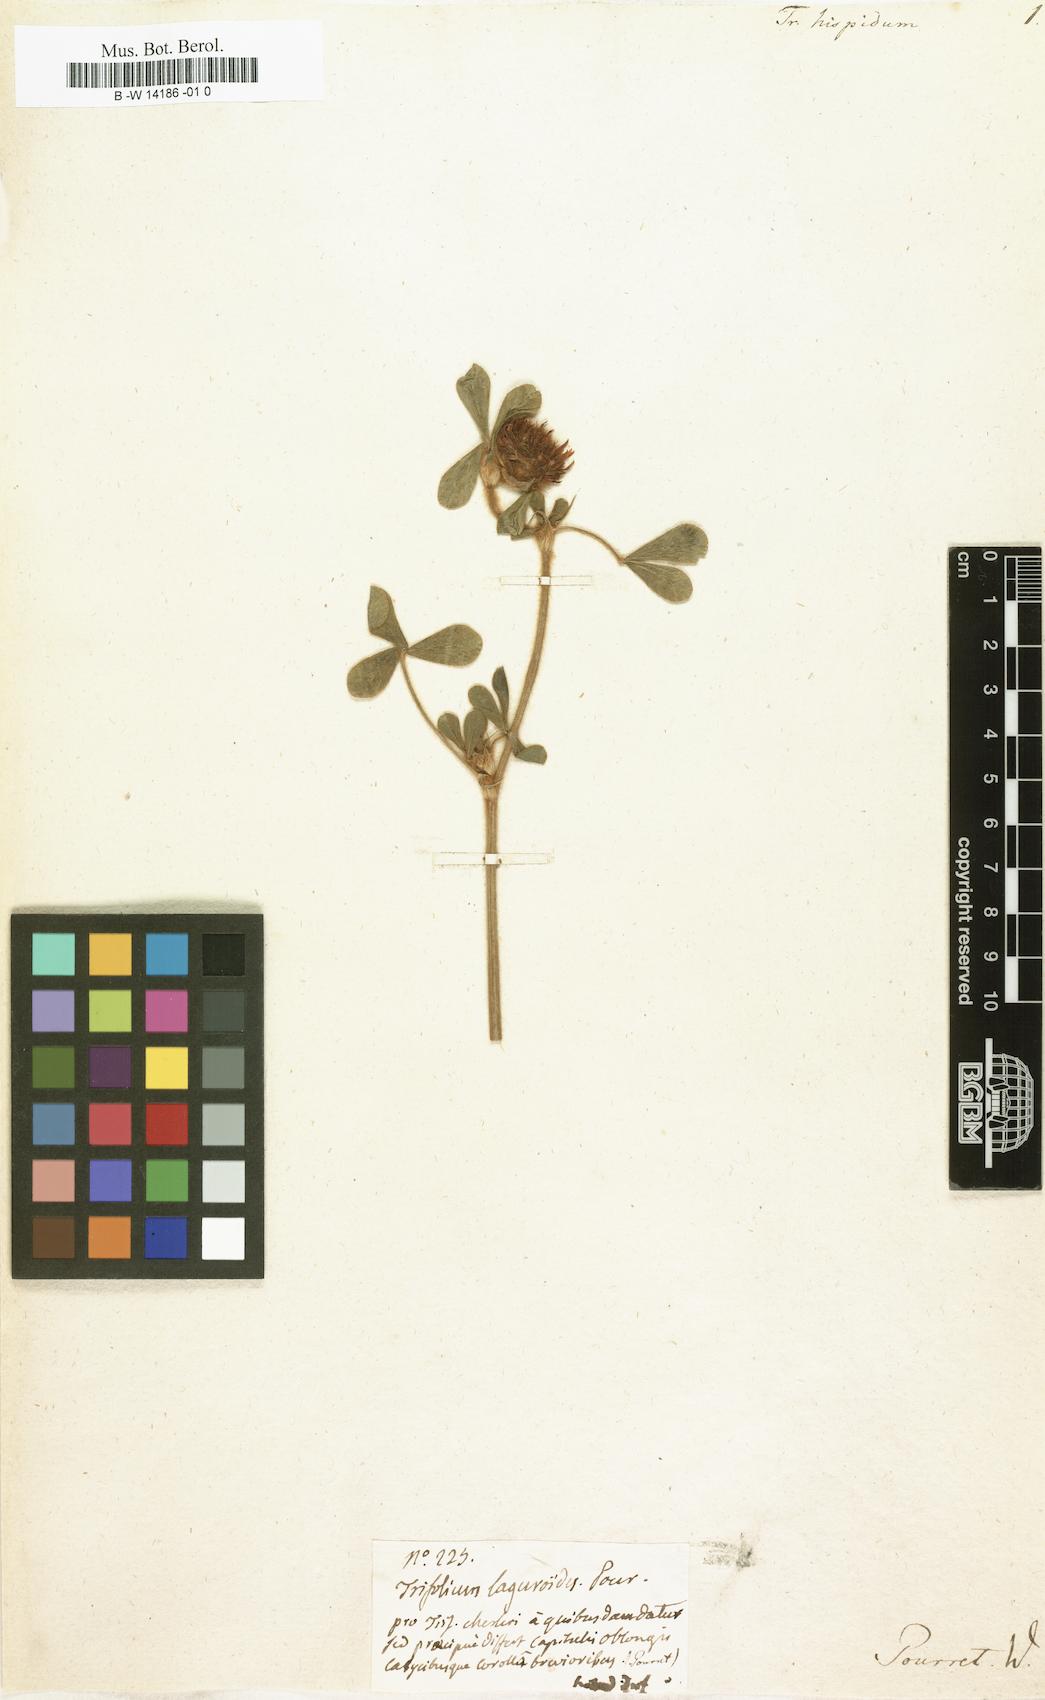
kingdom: Plantae
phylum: Tracheophyta
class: Magnoliopsida
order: Fabales
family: Fabaceae
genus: Trifolium
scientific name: Trifolium hirtum
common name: Rose clover
